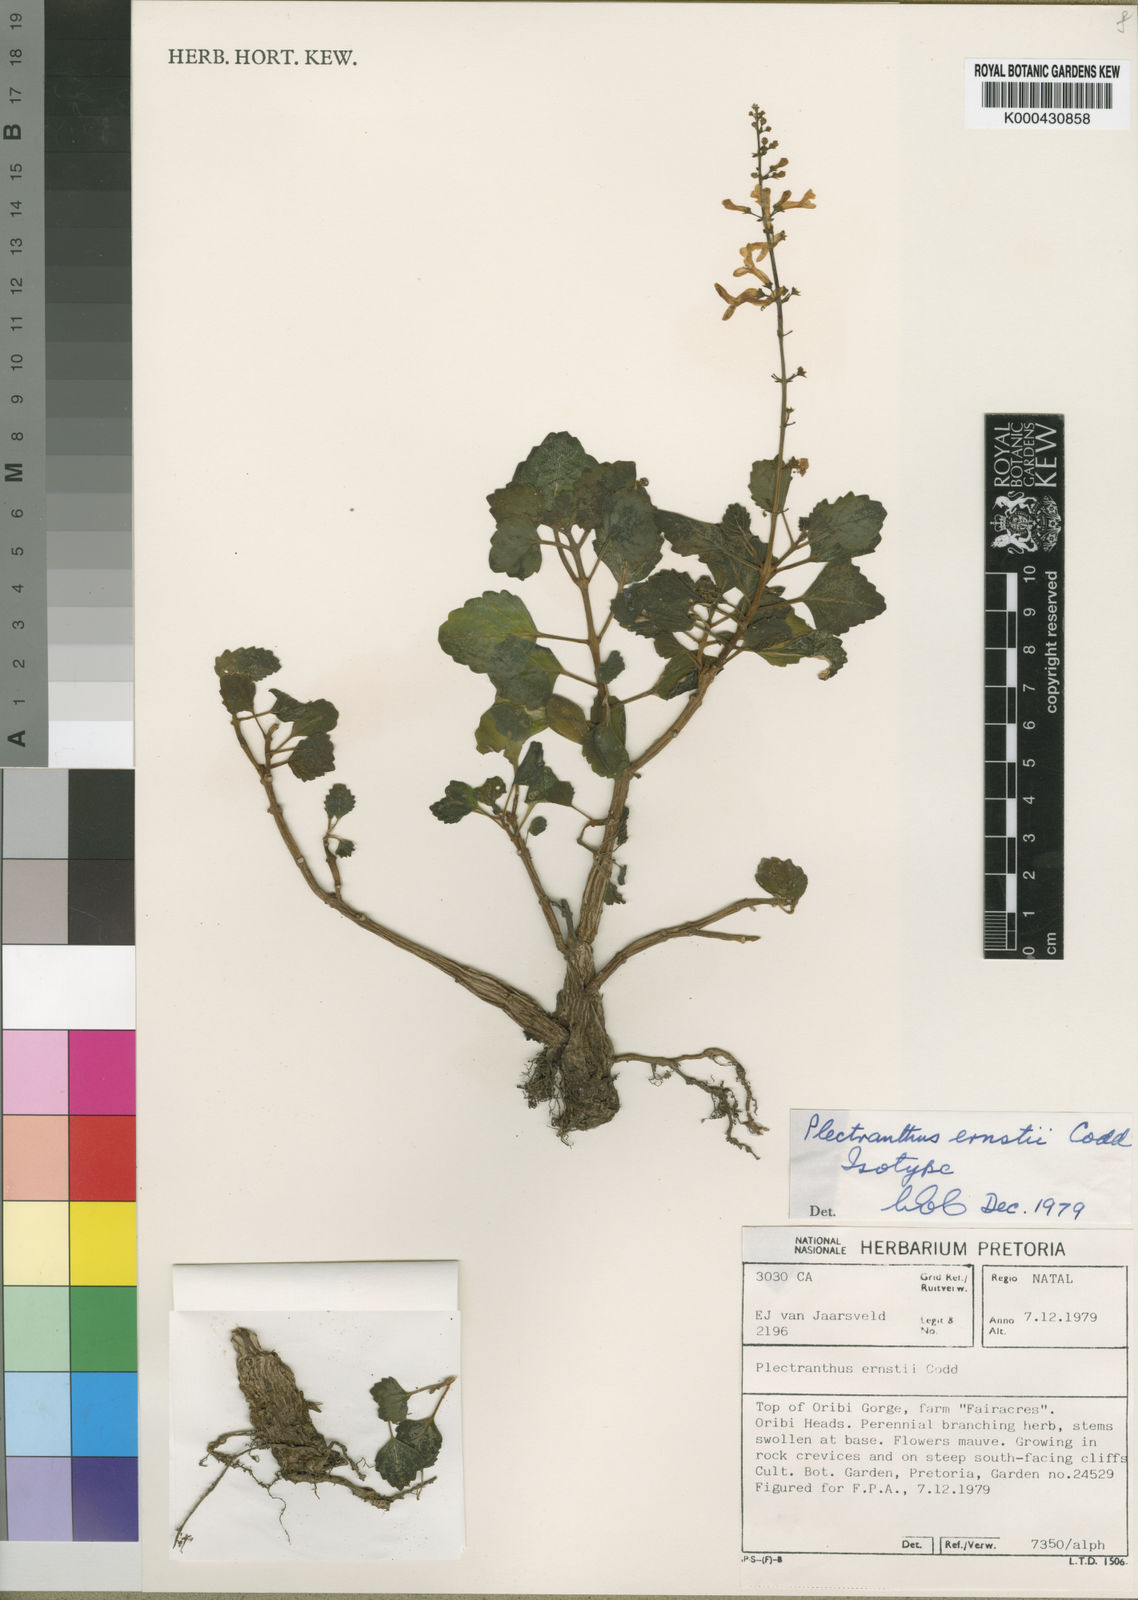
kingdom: Plantae
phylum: Tracheophyta
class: Magnoliopsida
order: Lamiales
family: Lamiaceae
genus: Plectranthus
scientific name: Plectranthus ernstii
